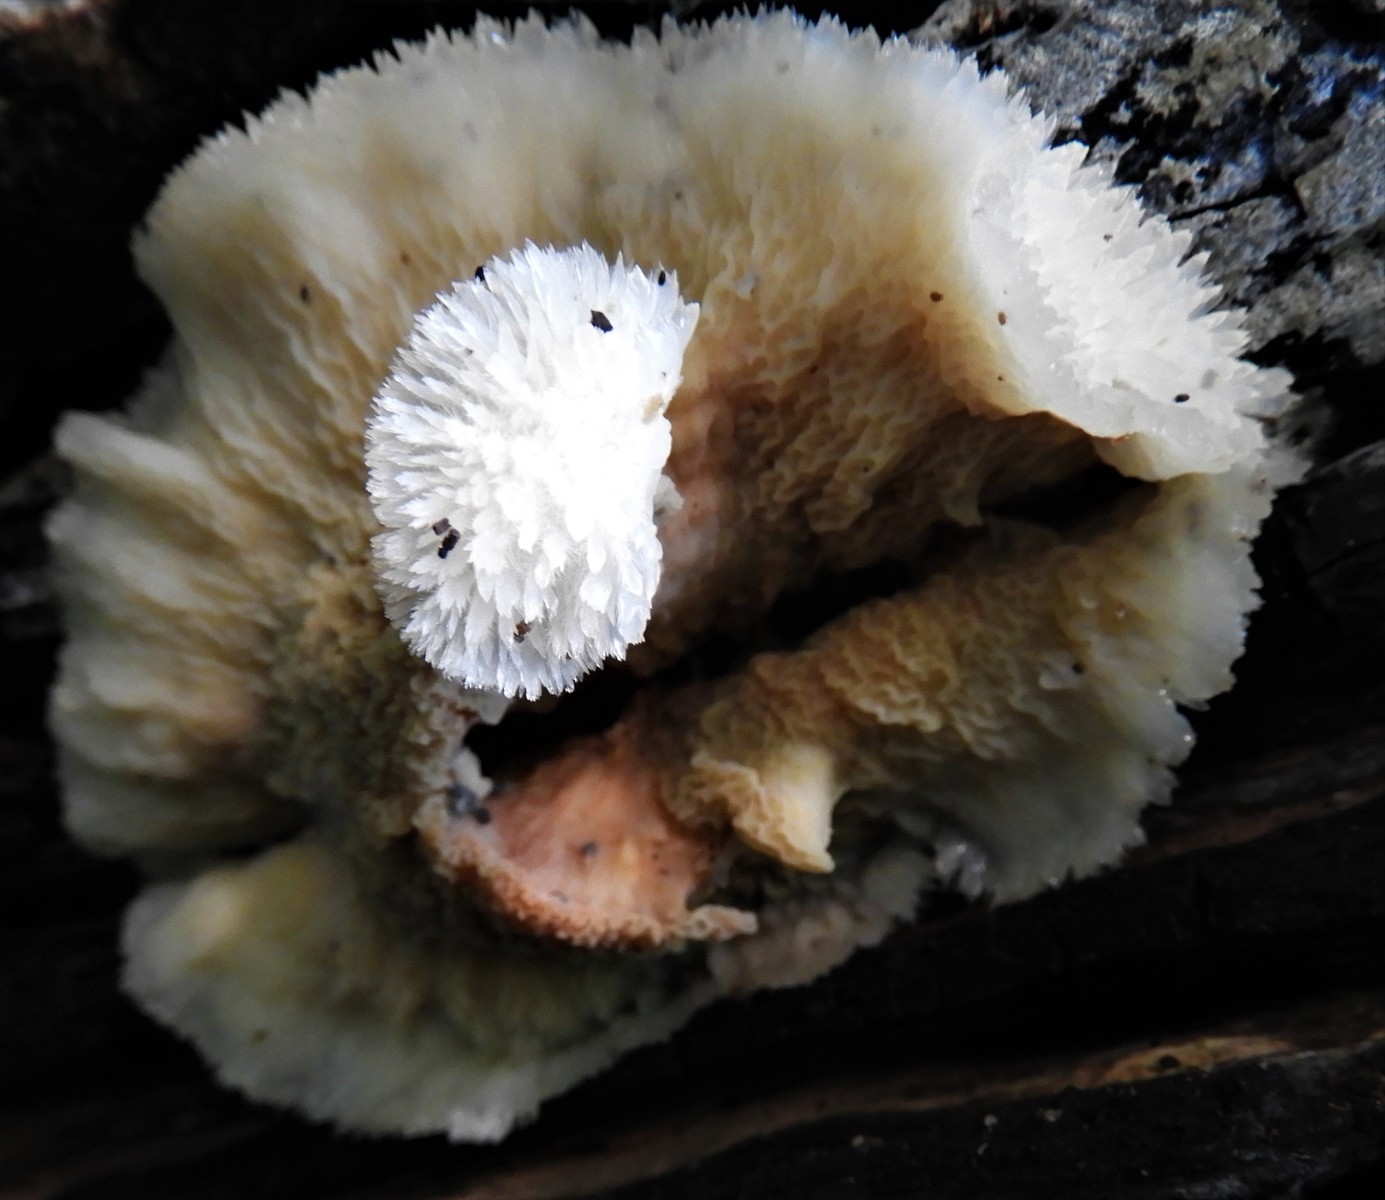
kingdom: Fungi
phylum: Basidiomycota
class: Agaricomycetes
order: Polyporales
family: Meruliaceae
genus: Phlebia
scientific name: Phlebia tremellosa
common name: bævrende åresvamp
